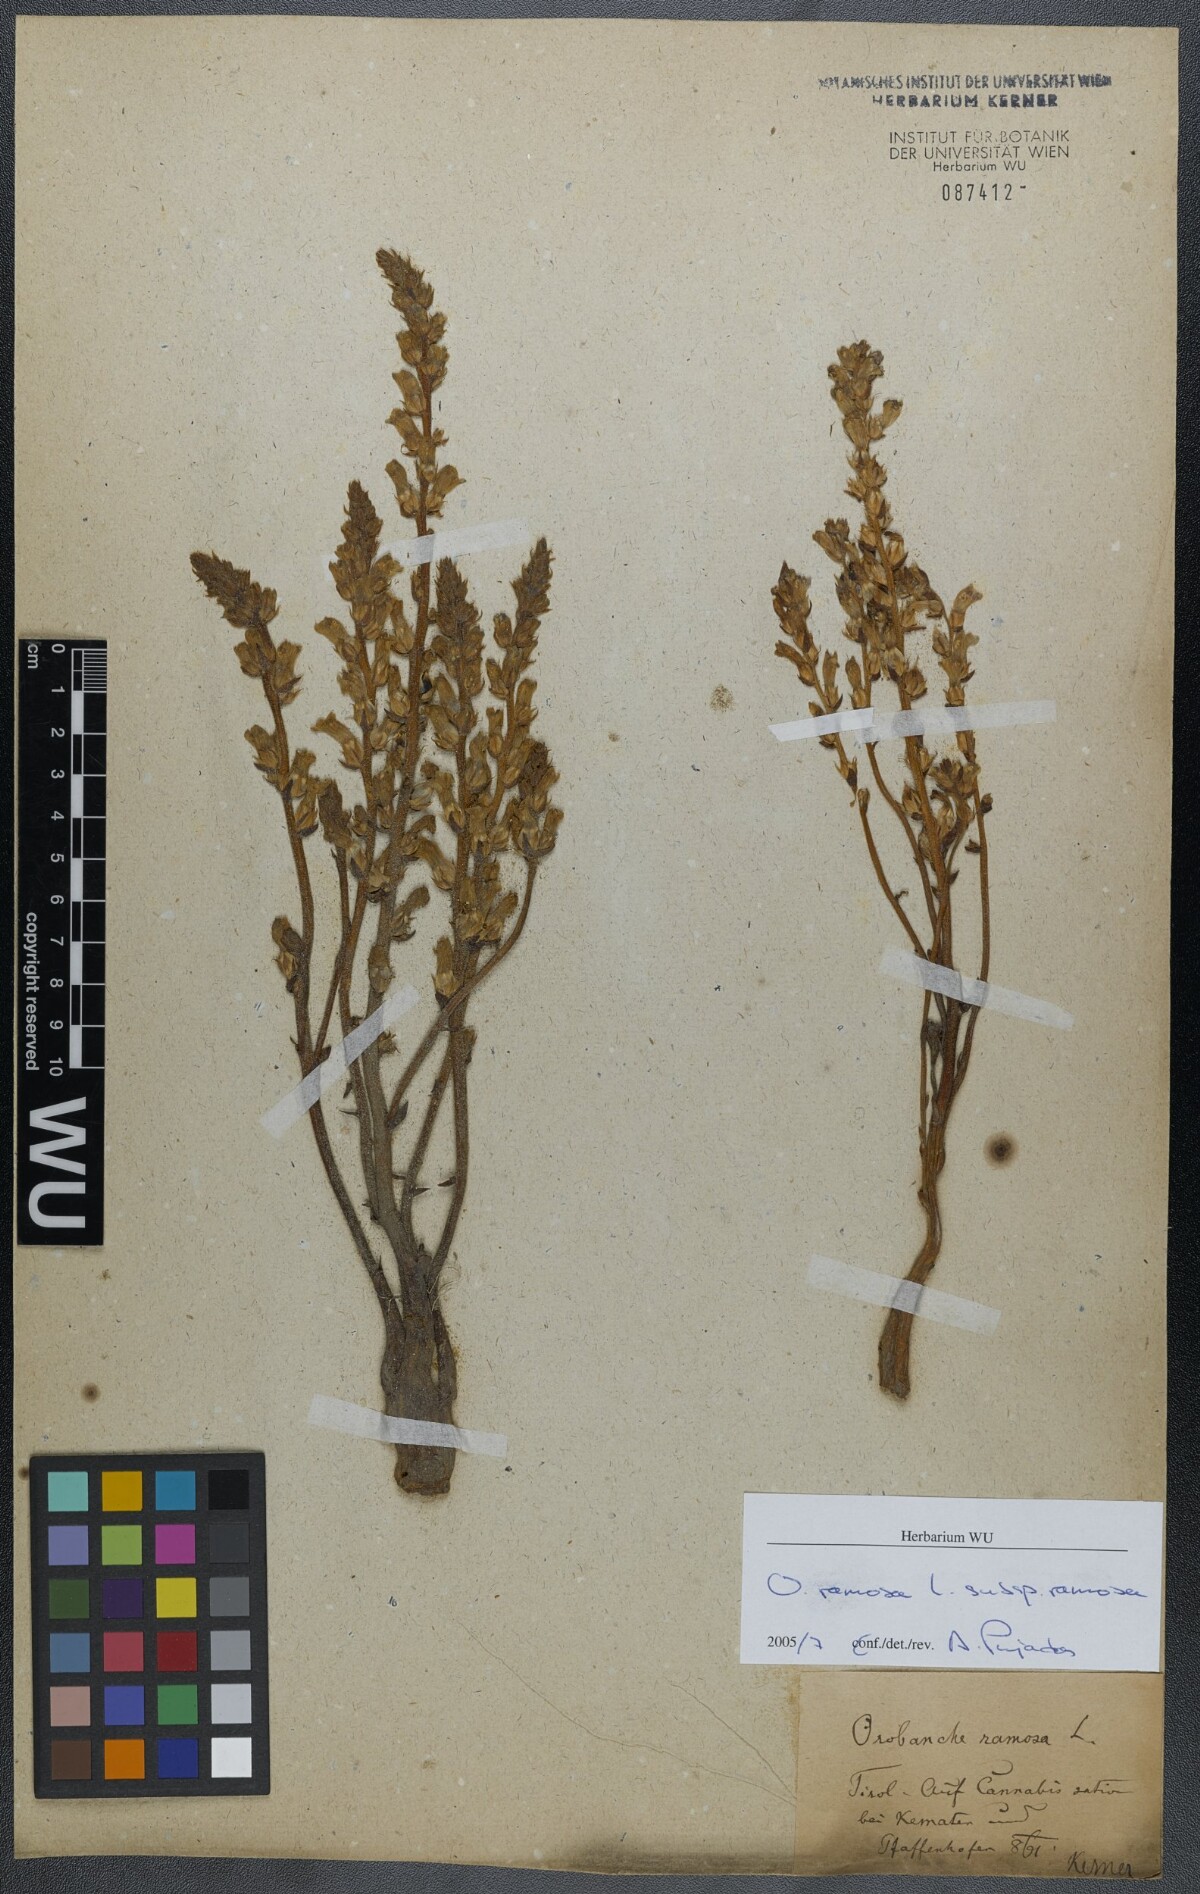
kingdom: Plantae
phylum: Tracheophyta
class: Magnoliopsida
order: Lamiales
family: Orobanchaceae
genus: Phelipanche
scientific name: Phelipanche ramosa
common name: Branched broomrape
